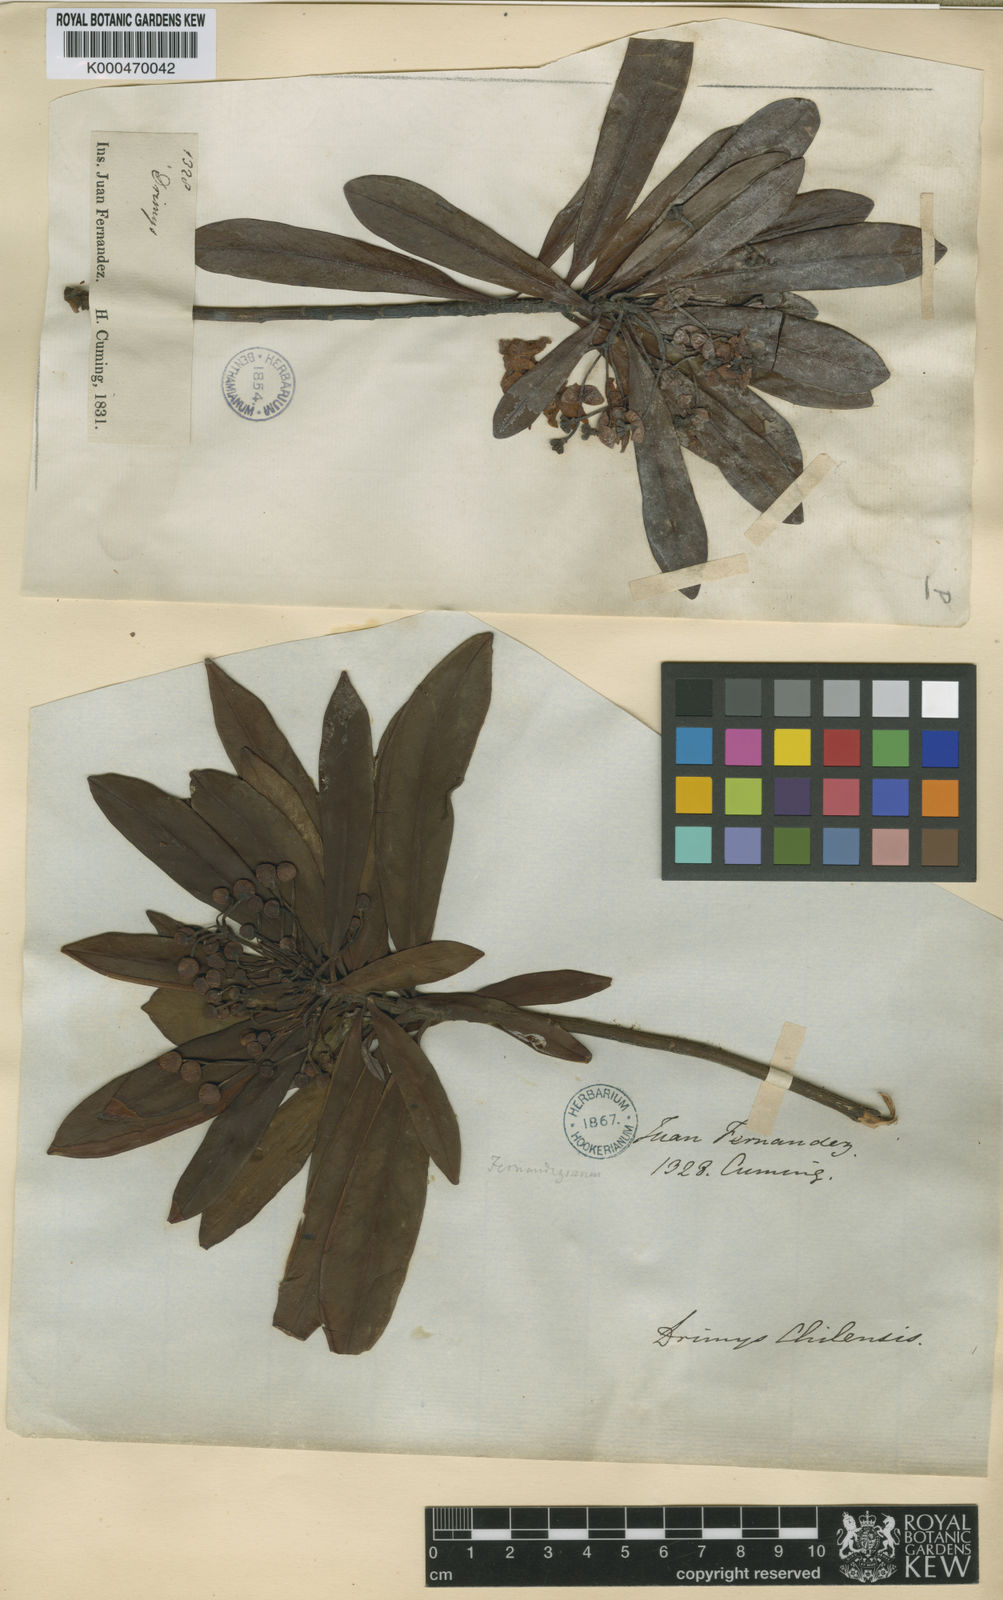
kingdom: Plantae
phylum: Tracheophyta
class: Magnoliopsida
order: Canellales
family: Winteraceae
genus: Drimys
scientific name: Drimys confertiflora
